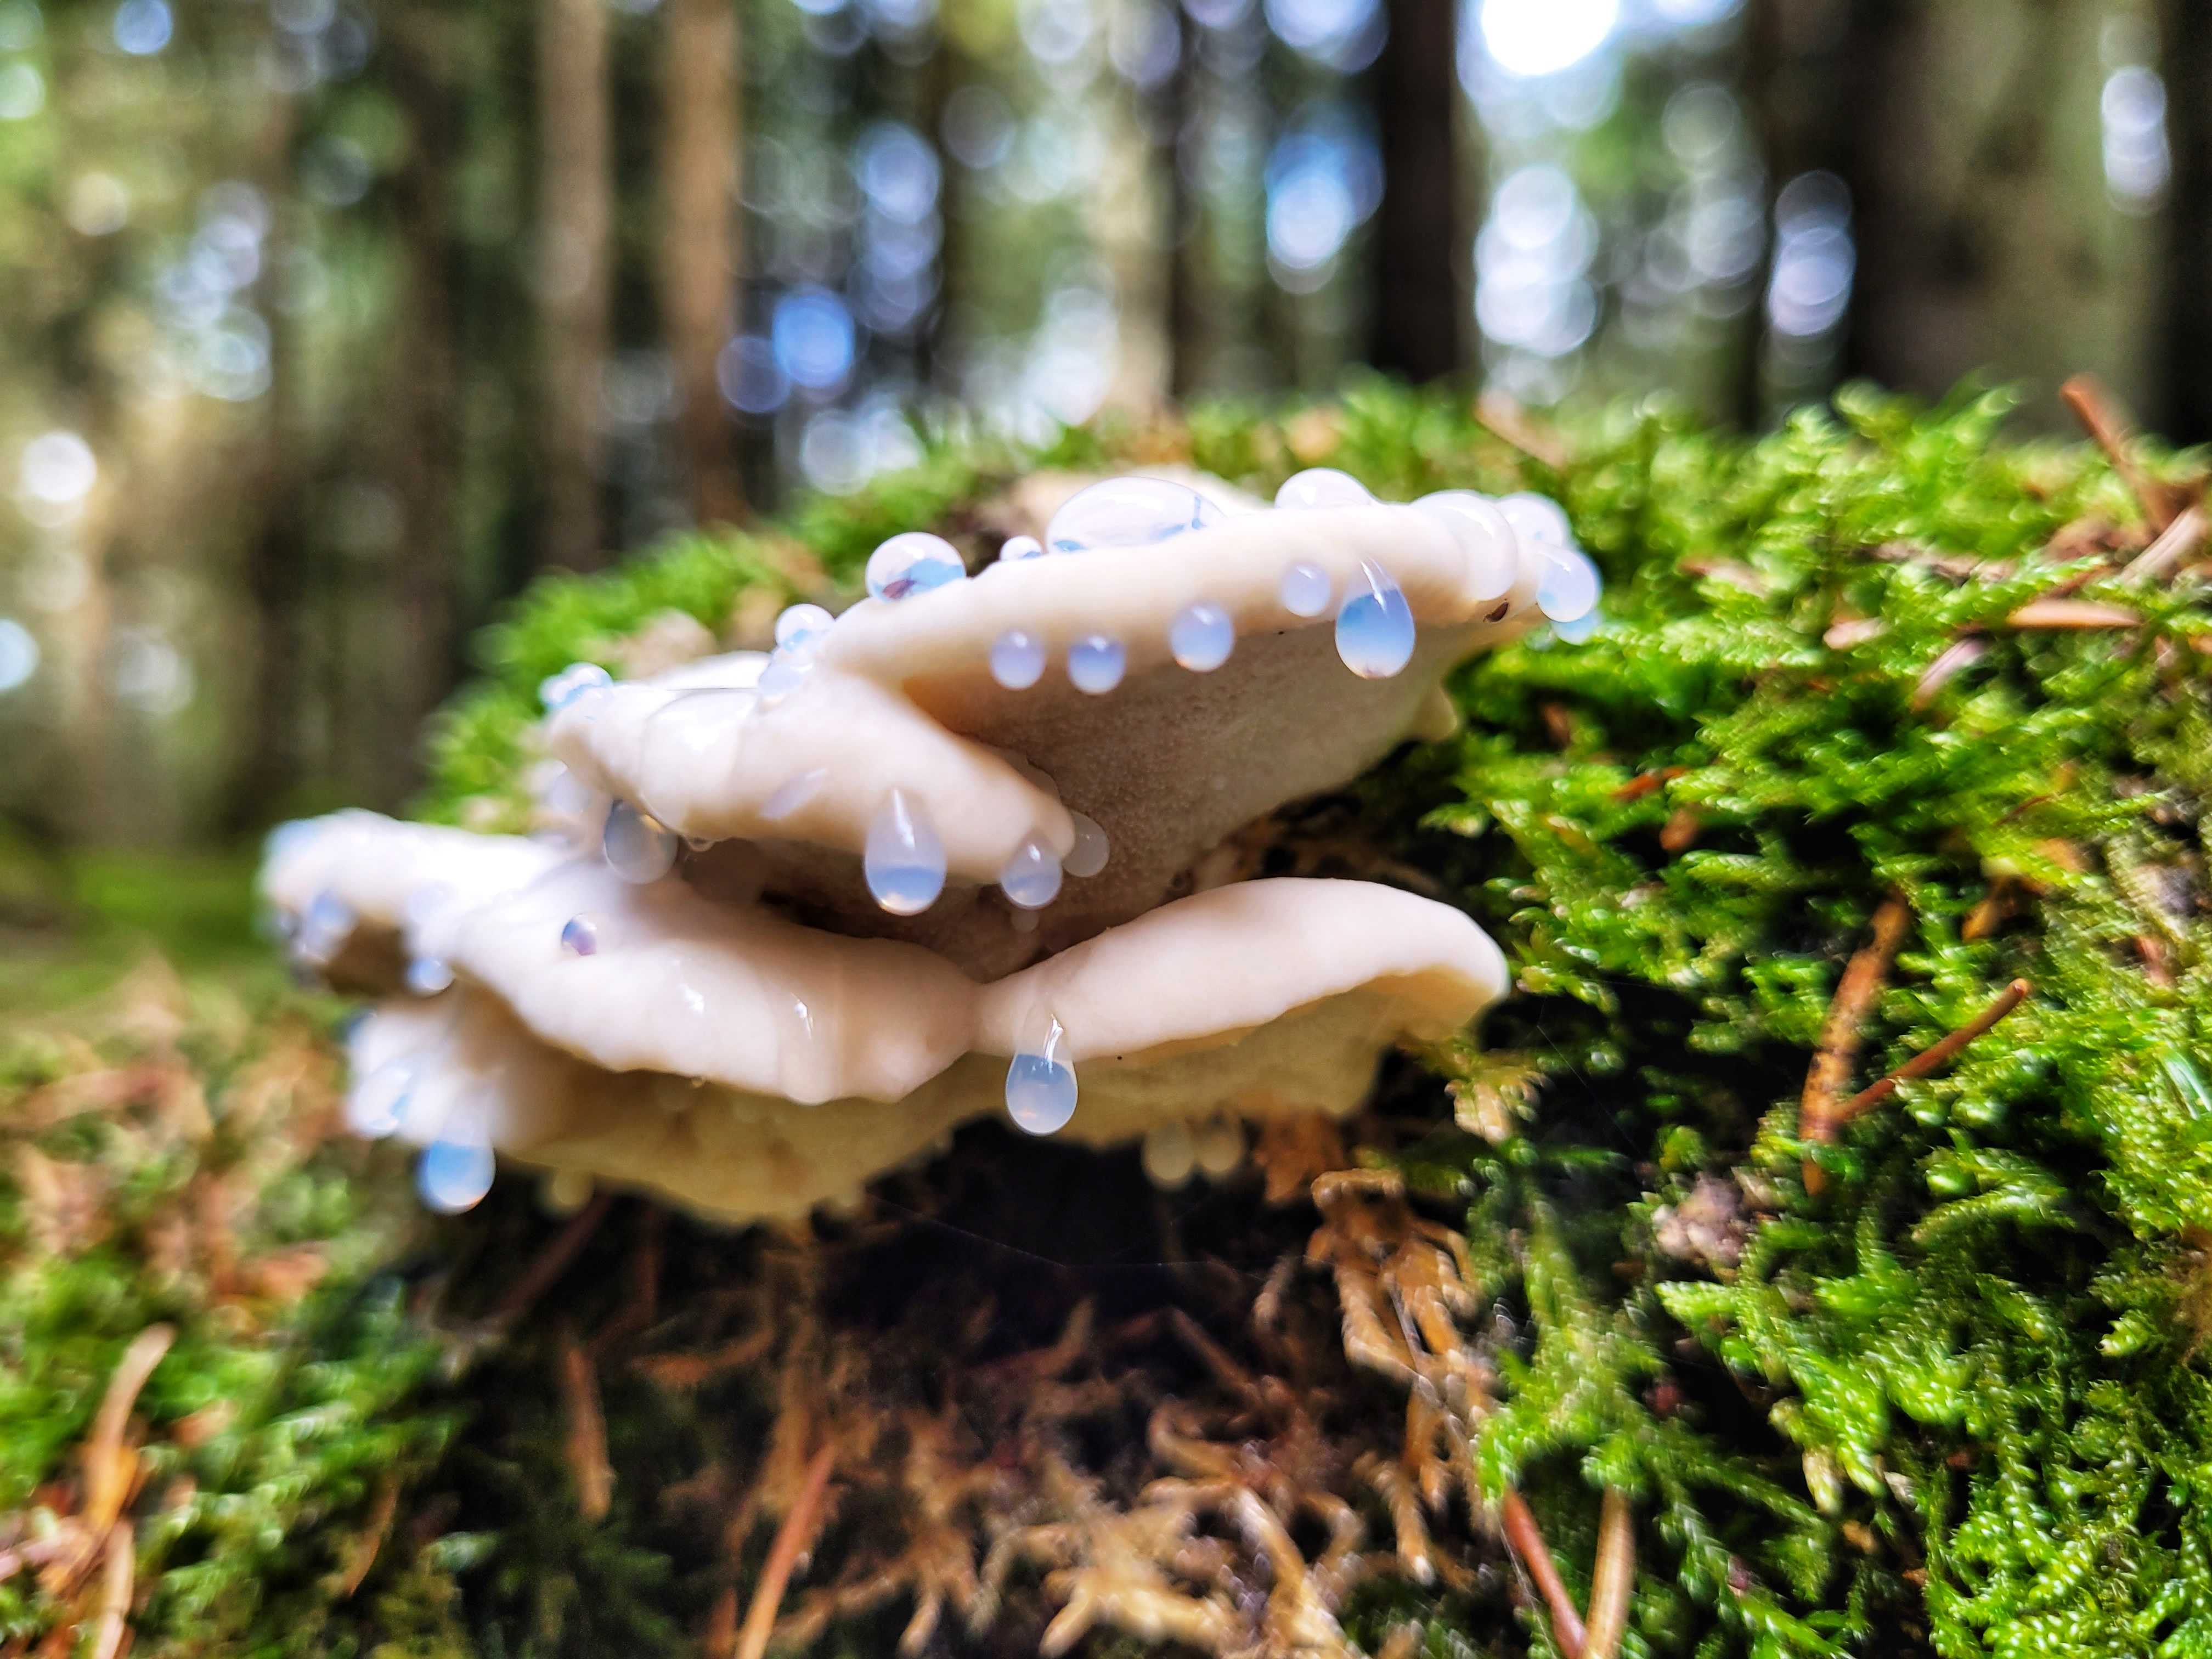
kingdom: Fungi
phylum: Basidiomycota
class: Agaricomycetes
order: Polyporales
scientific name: Polyporales
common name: poresvampordenen
